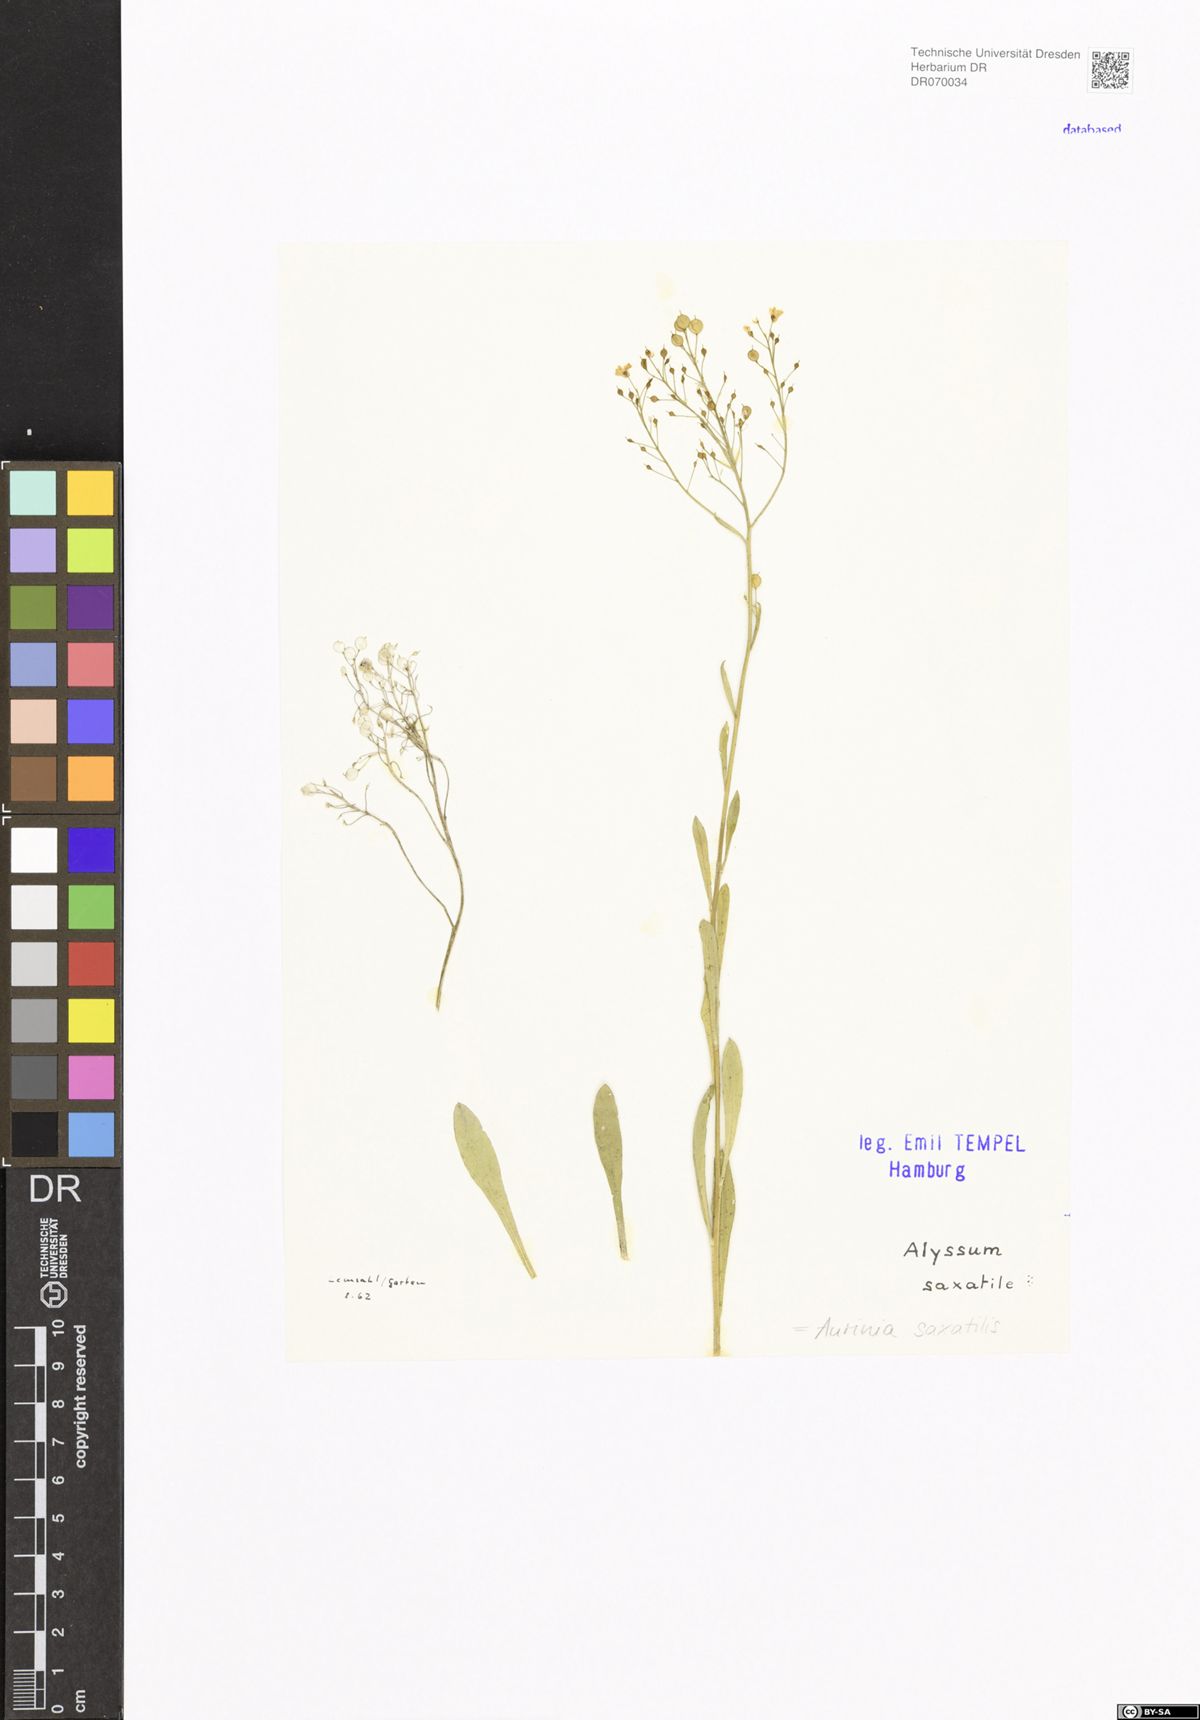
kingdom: Plantae
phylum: Tracheophyta
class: Magnoliopsida
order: Brassicales
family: Brassicaceae
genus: Aurinia
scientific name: Aurinia saxatilis
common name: Golden-tuft alyssum
